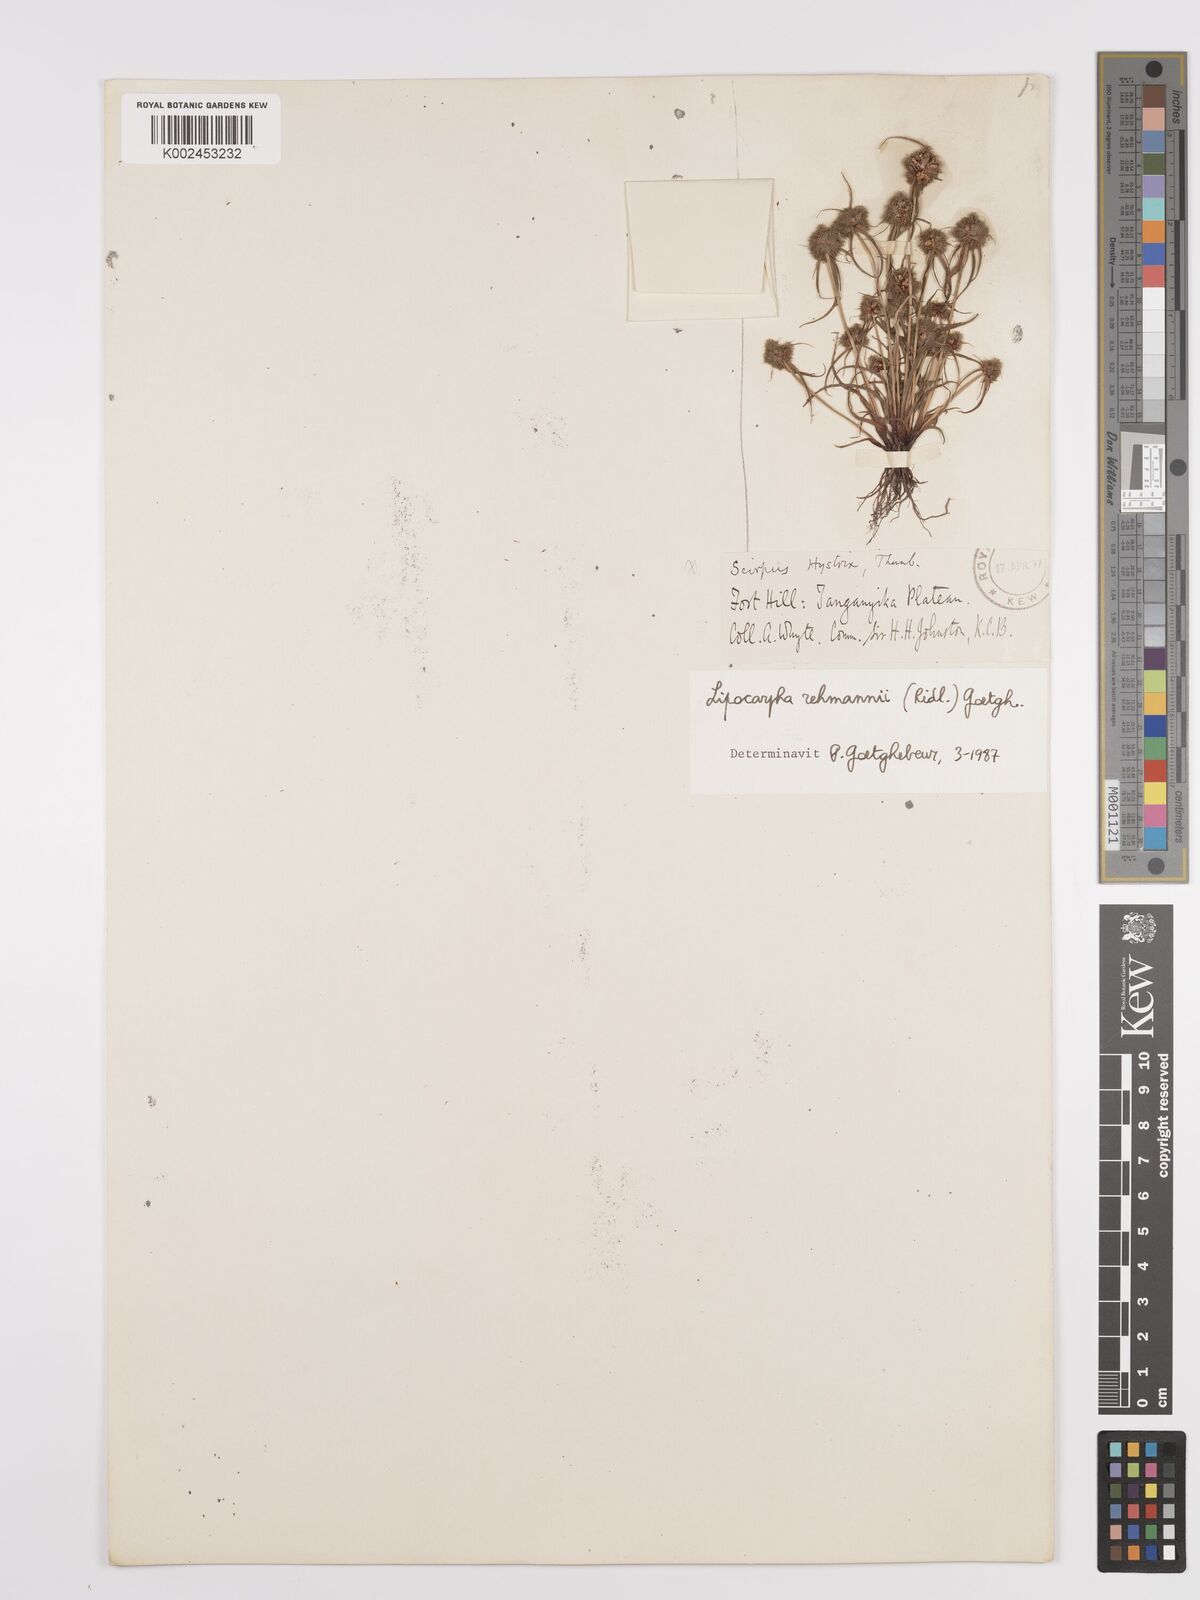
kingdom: Plantae
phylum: Tracheophyta
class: Liliopsida
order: Poales
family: Cyperaceae
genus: Cyperus
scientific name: Cyperus sanguinolentus
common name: Purpleglume flatsedge
